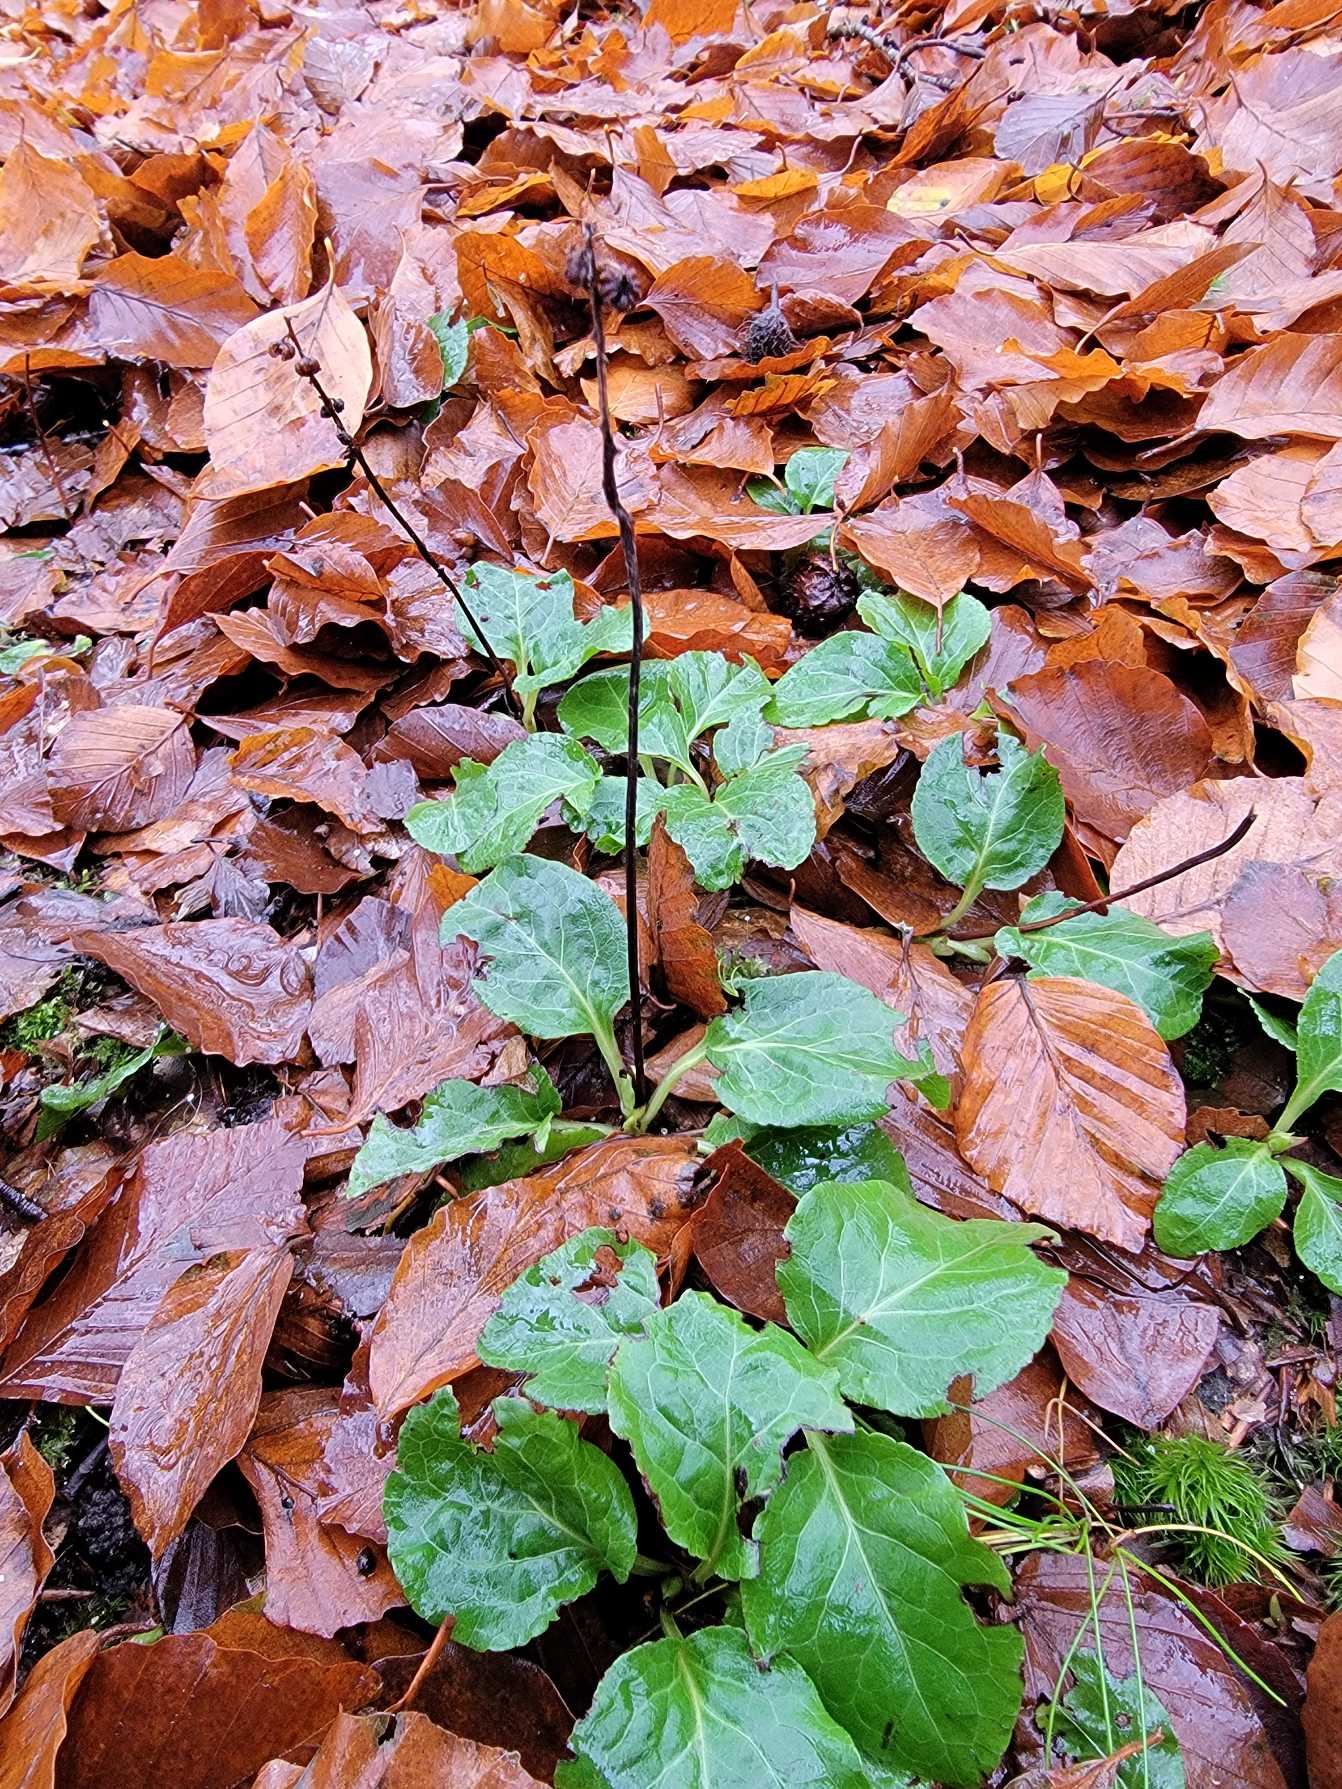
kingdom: Plantae
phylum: Tracheophyta
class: Magnoliopsida
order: Ericales
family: Ericaceae
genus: Pyrola
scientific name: Pyrola minor
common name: Liden vintergrøn
